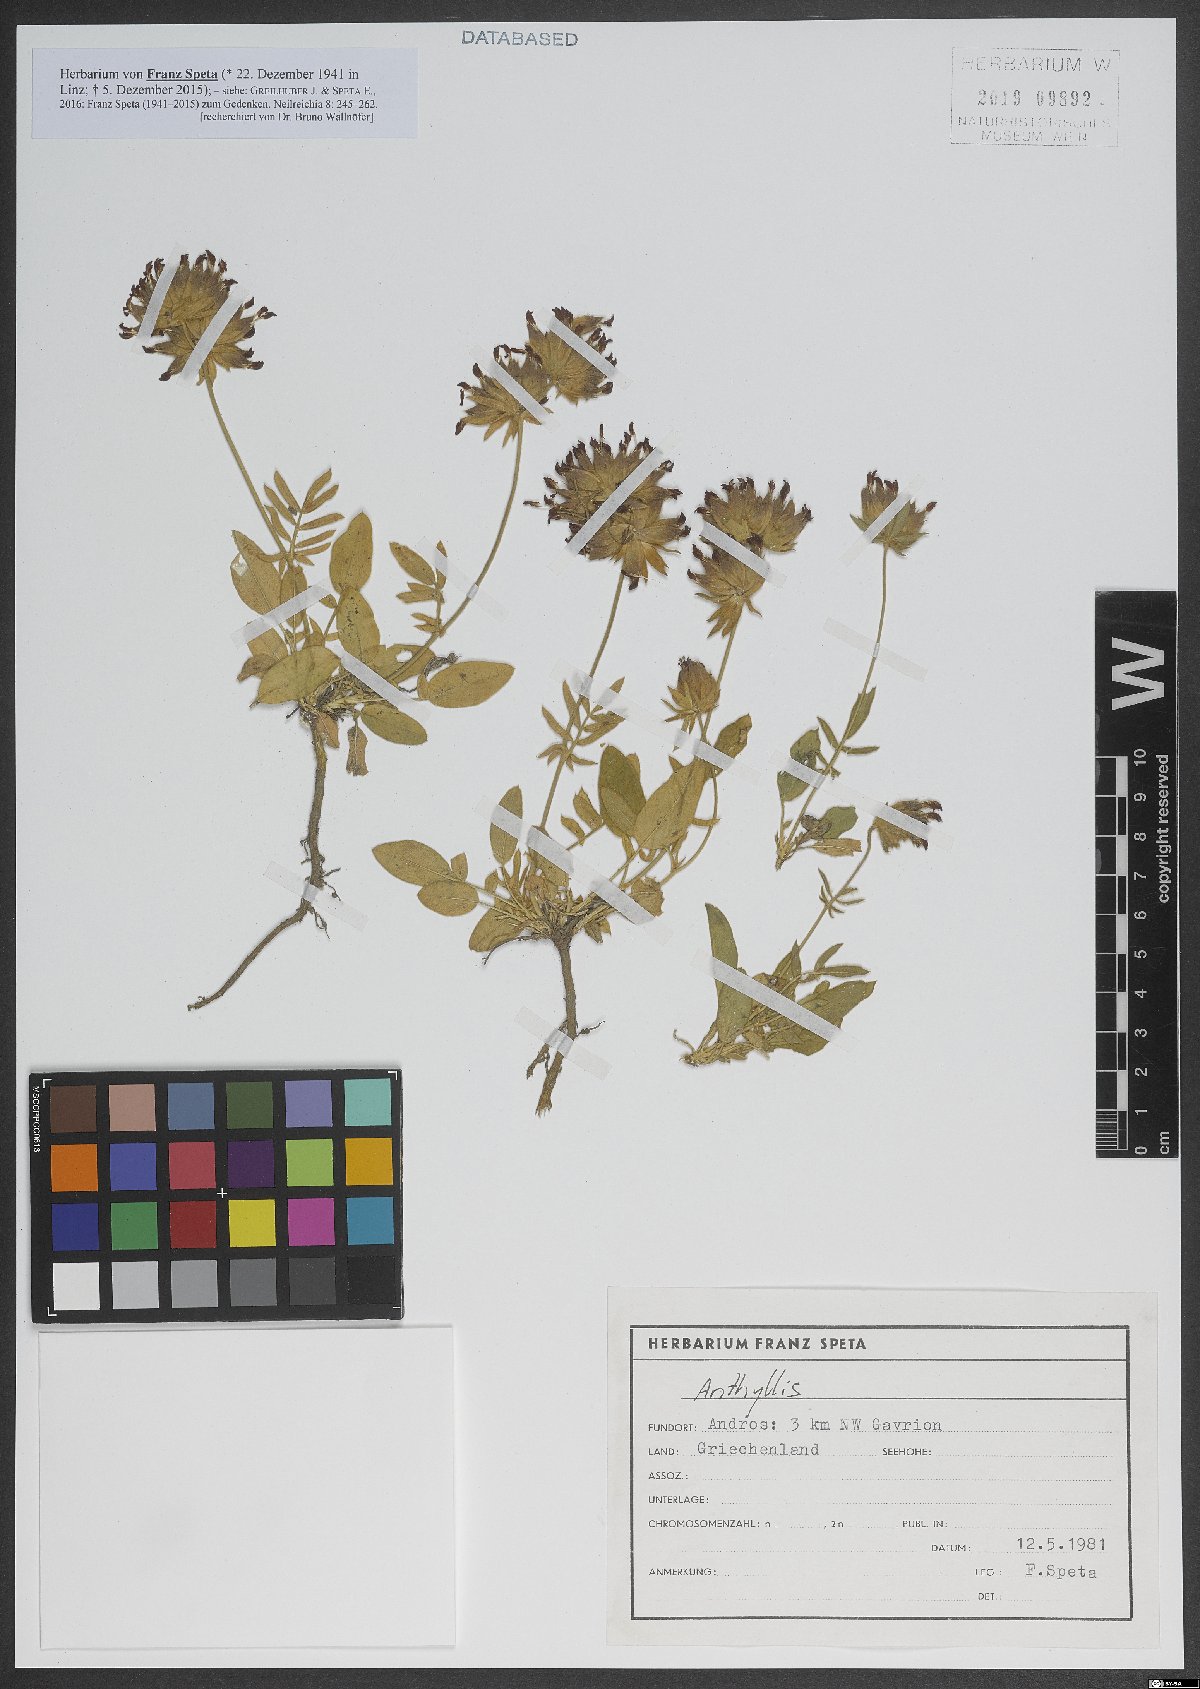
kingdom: Plantae
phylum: Tracheophyta
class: Magnoliopsida
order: Fabales
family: Fabaceae
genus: Anthyllis
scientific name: Anthyllis
